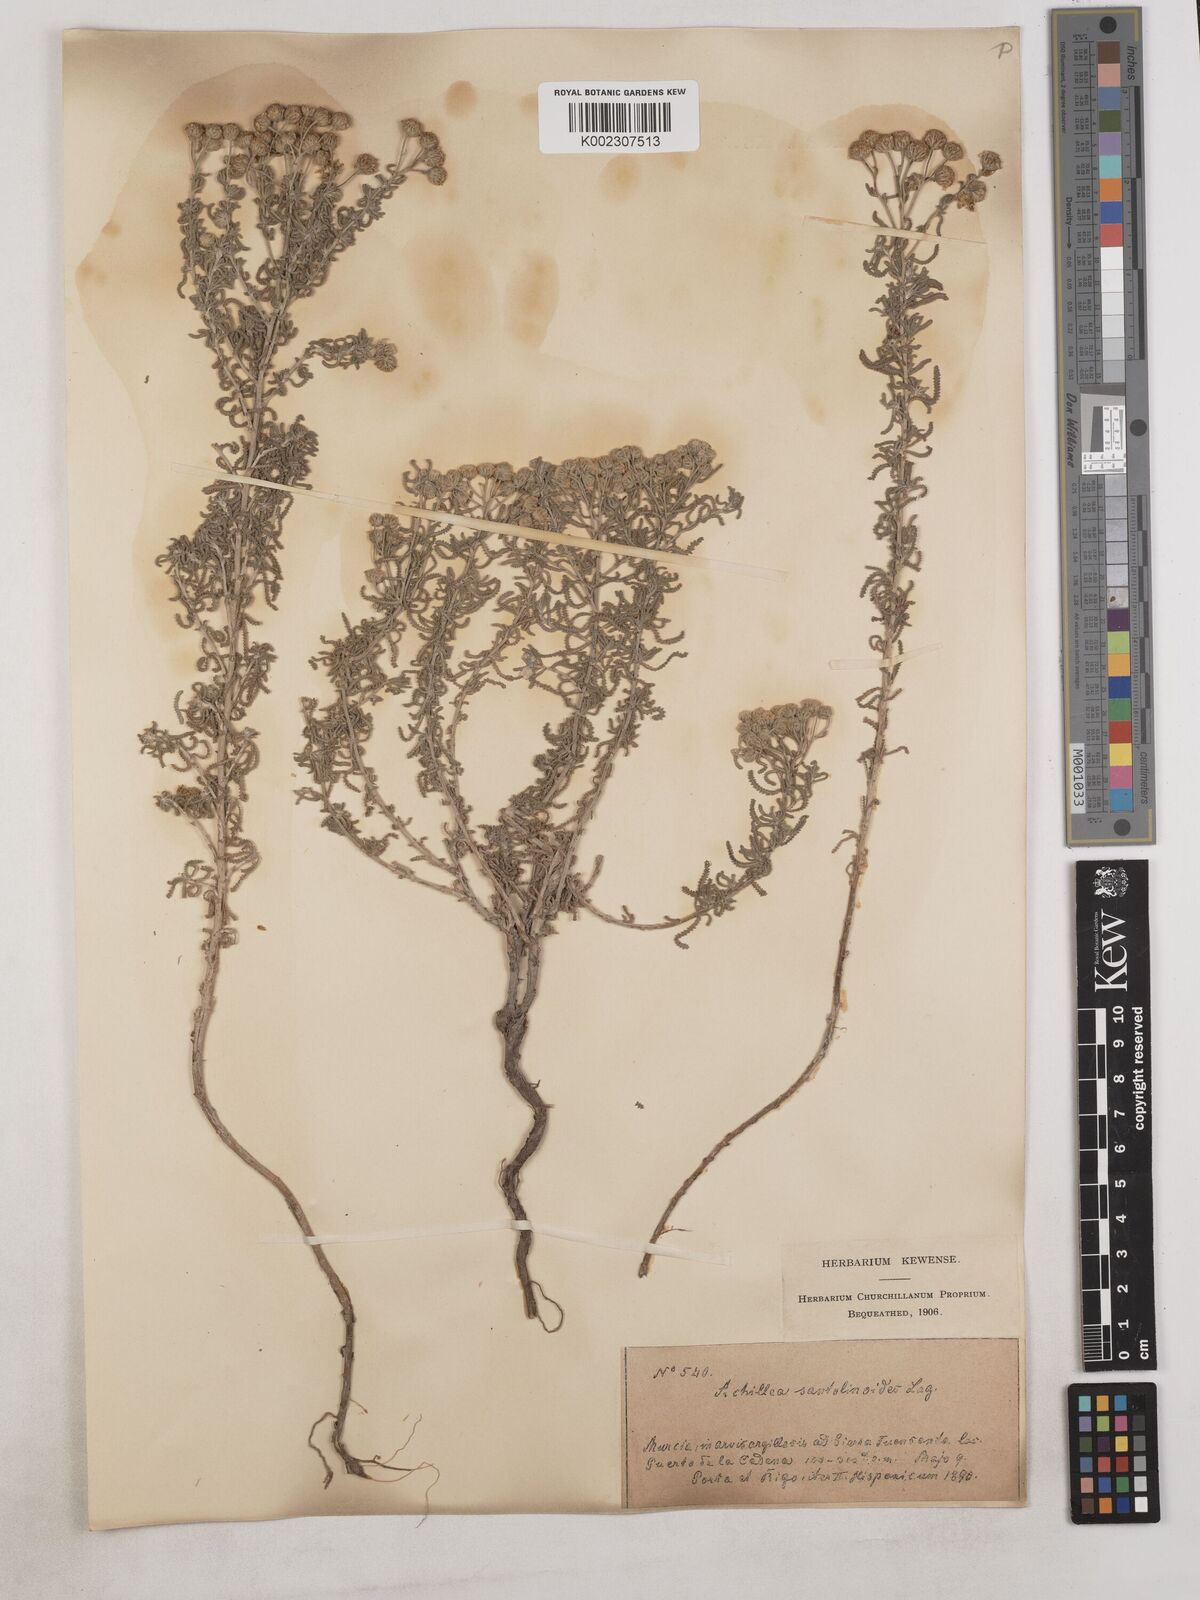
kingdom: Plantae
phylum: Tracheophyta
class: Magnoliopsida
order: Asterales
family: Asteraceae
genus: Achillea
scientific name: Achillea santolinoides
